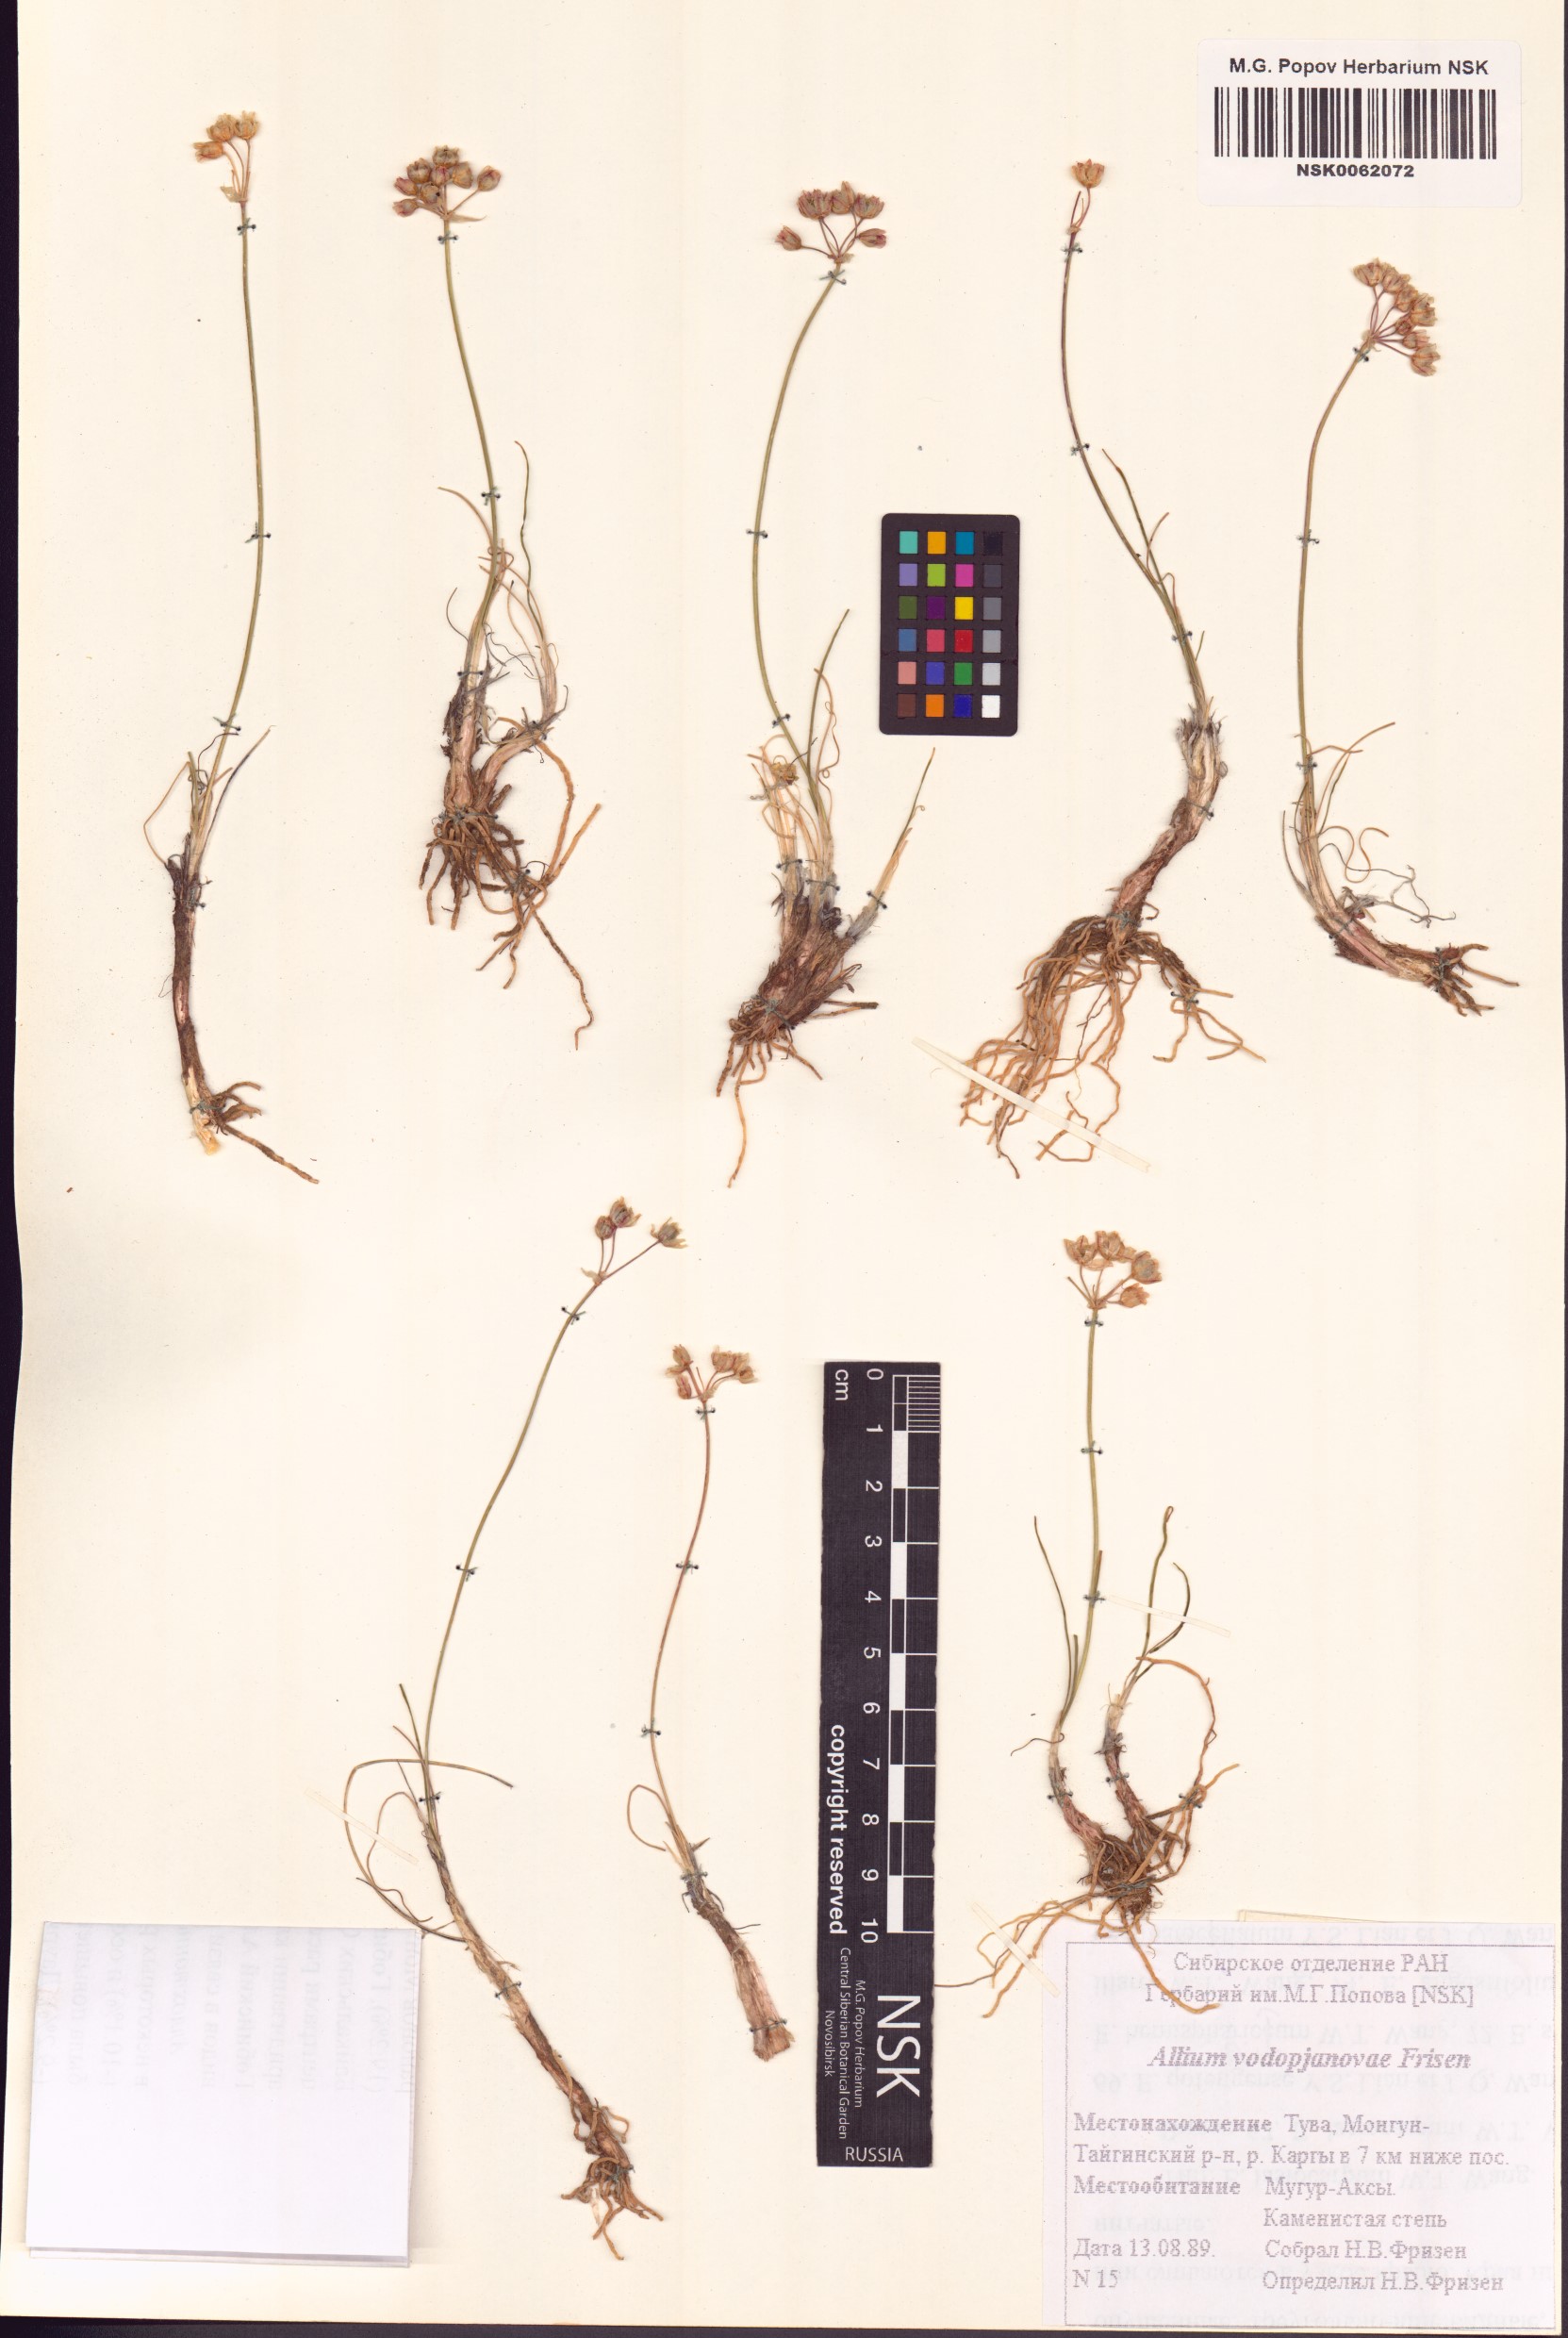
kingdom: Plantae
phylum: Tracheophyta
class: Liliopsida
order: Asparagales
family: Amaryllidaceae
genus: Allium
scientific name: Allium vodopjanovae
